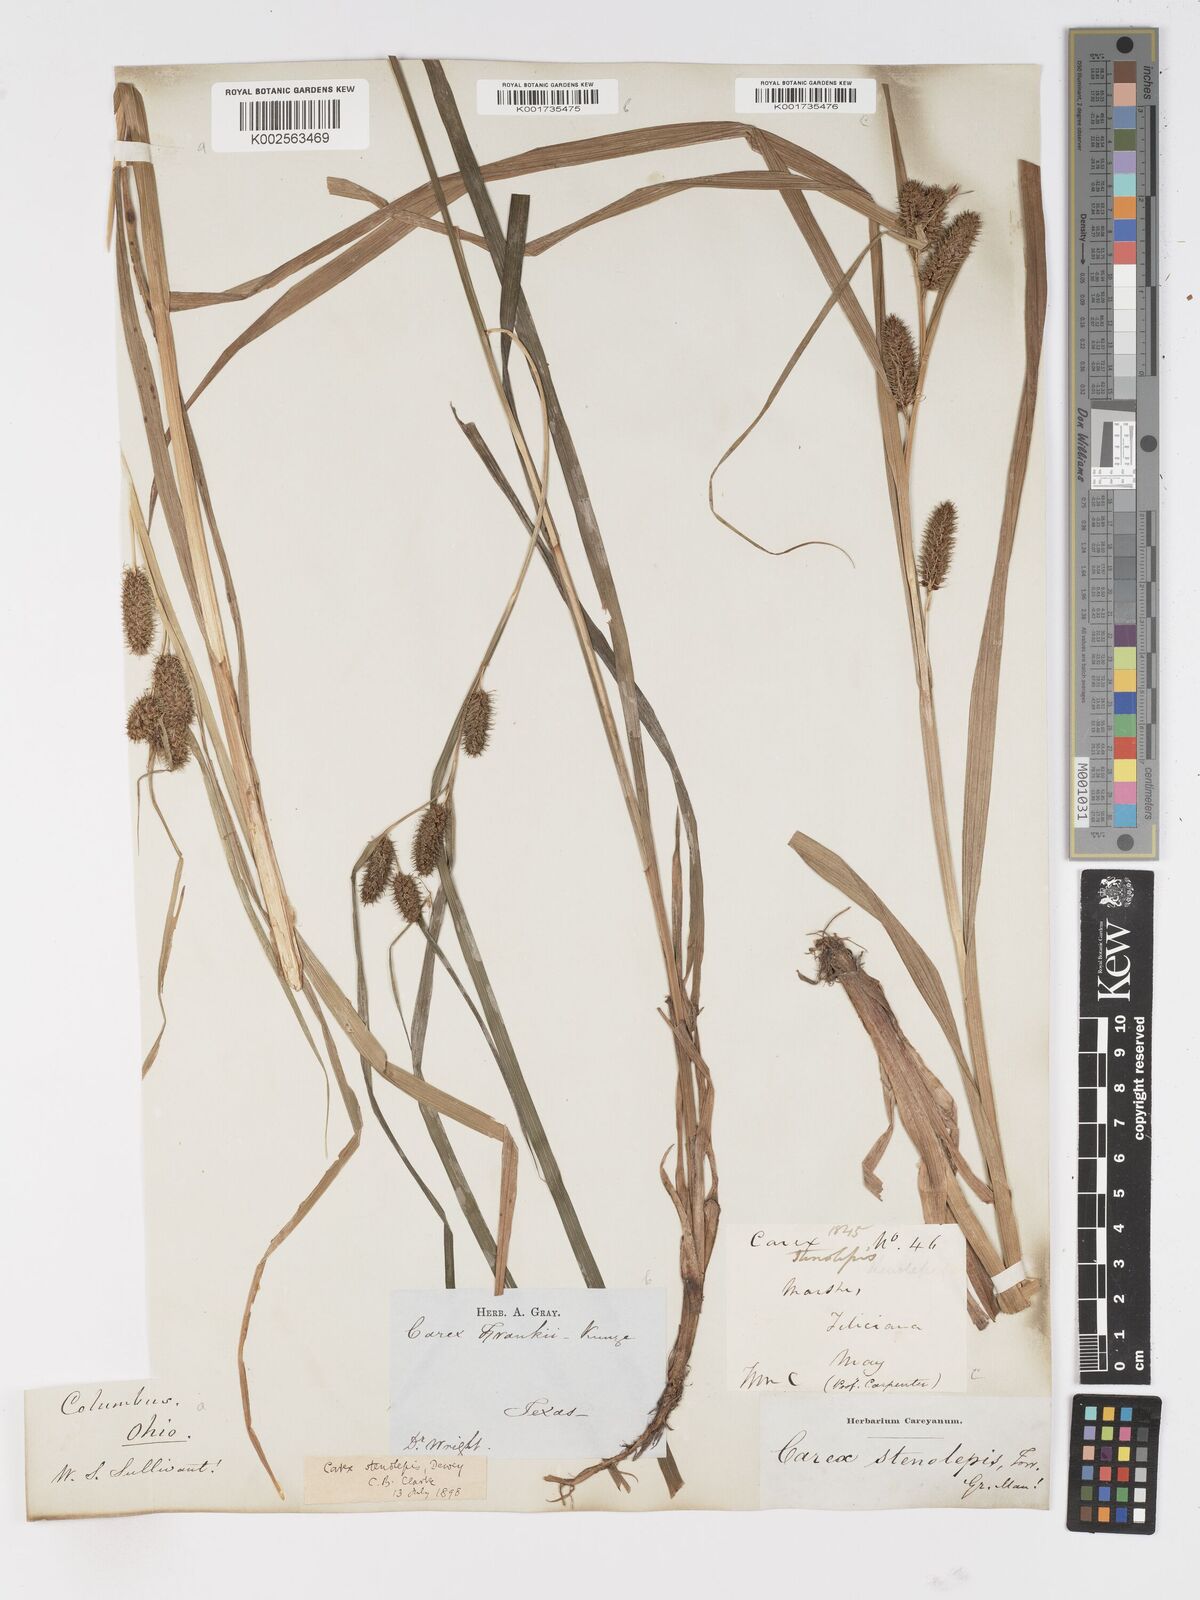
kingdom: Plantae
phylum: Tracheophyta
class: Liliopsida
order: Poales
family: Cyperaceae
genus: Carex
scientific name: Carex frankii
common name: Frank's sedge
